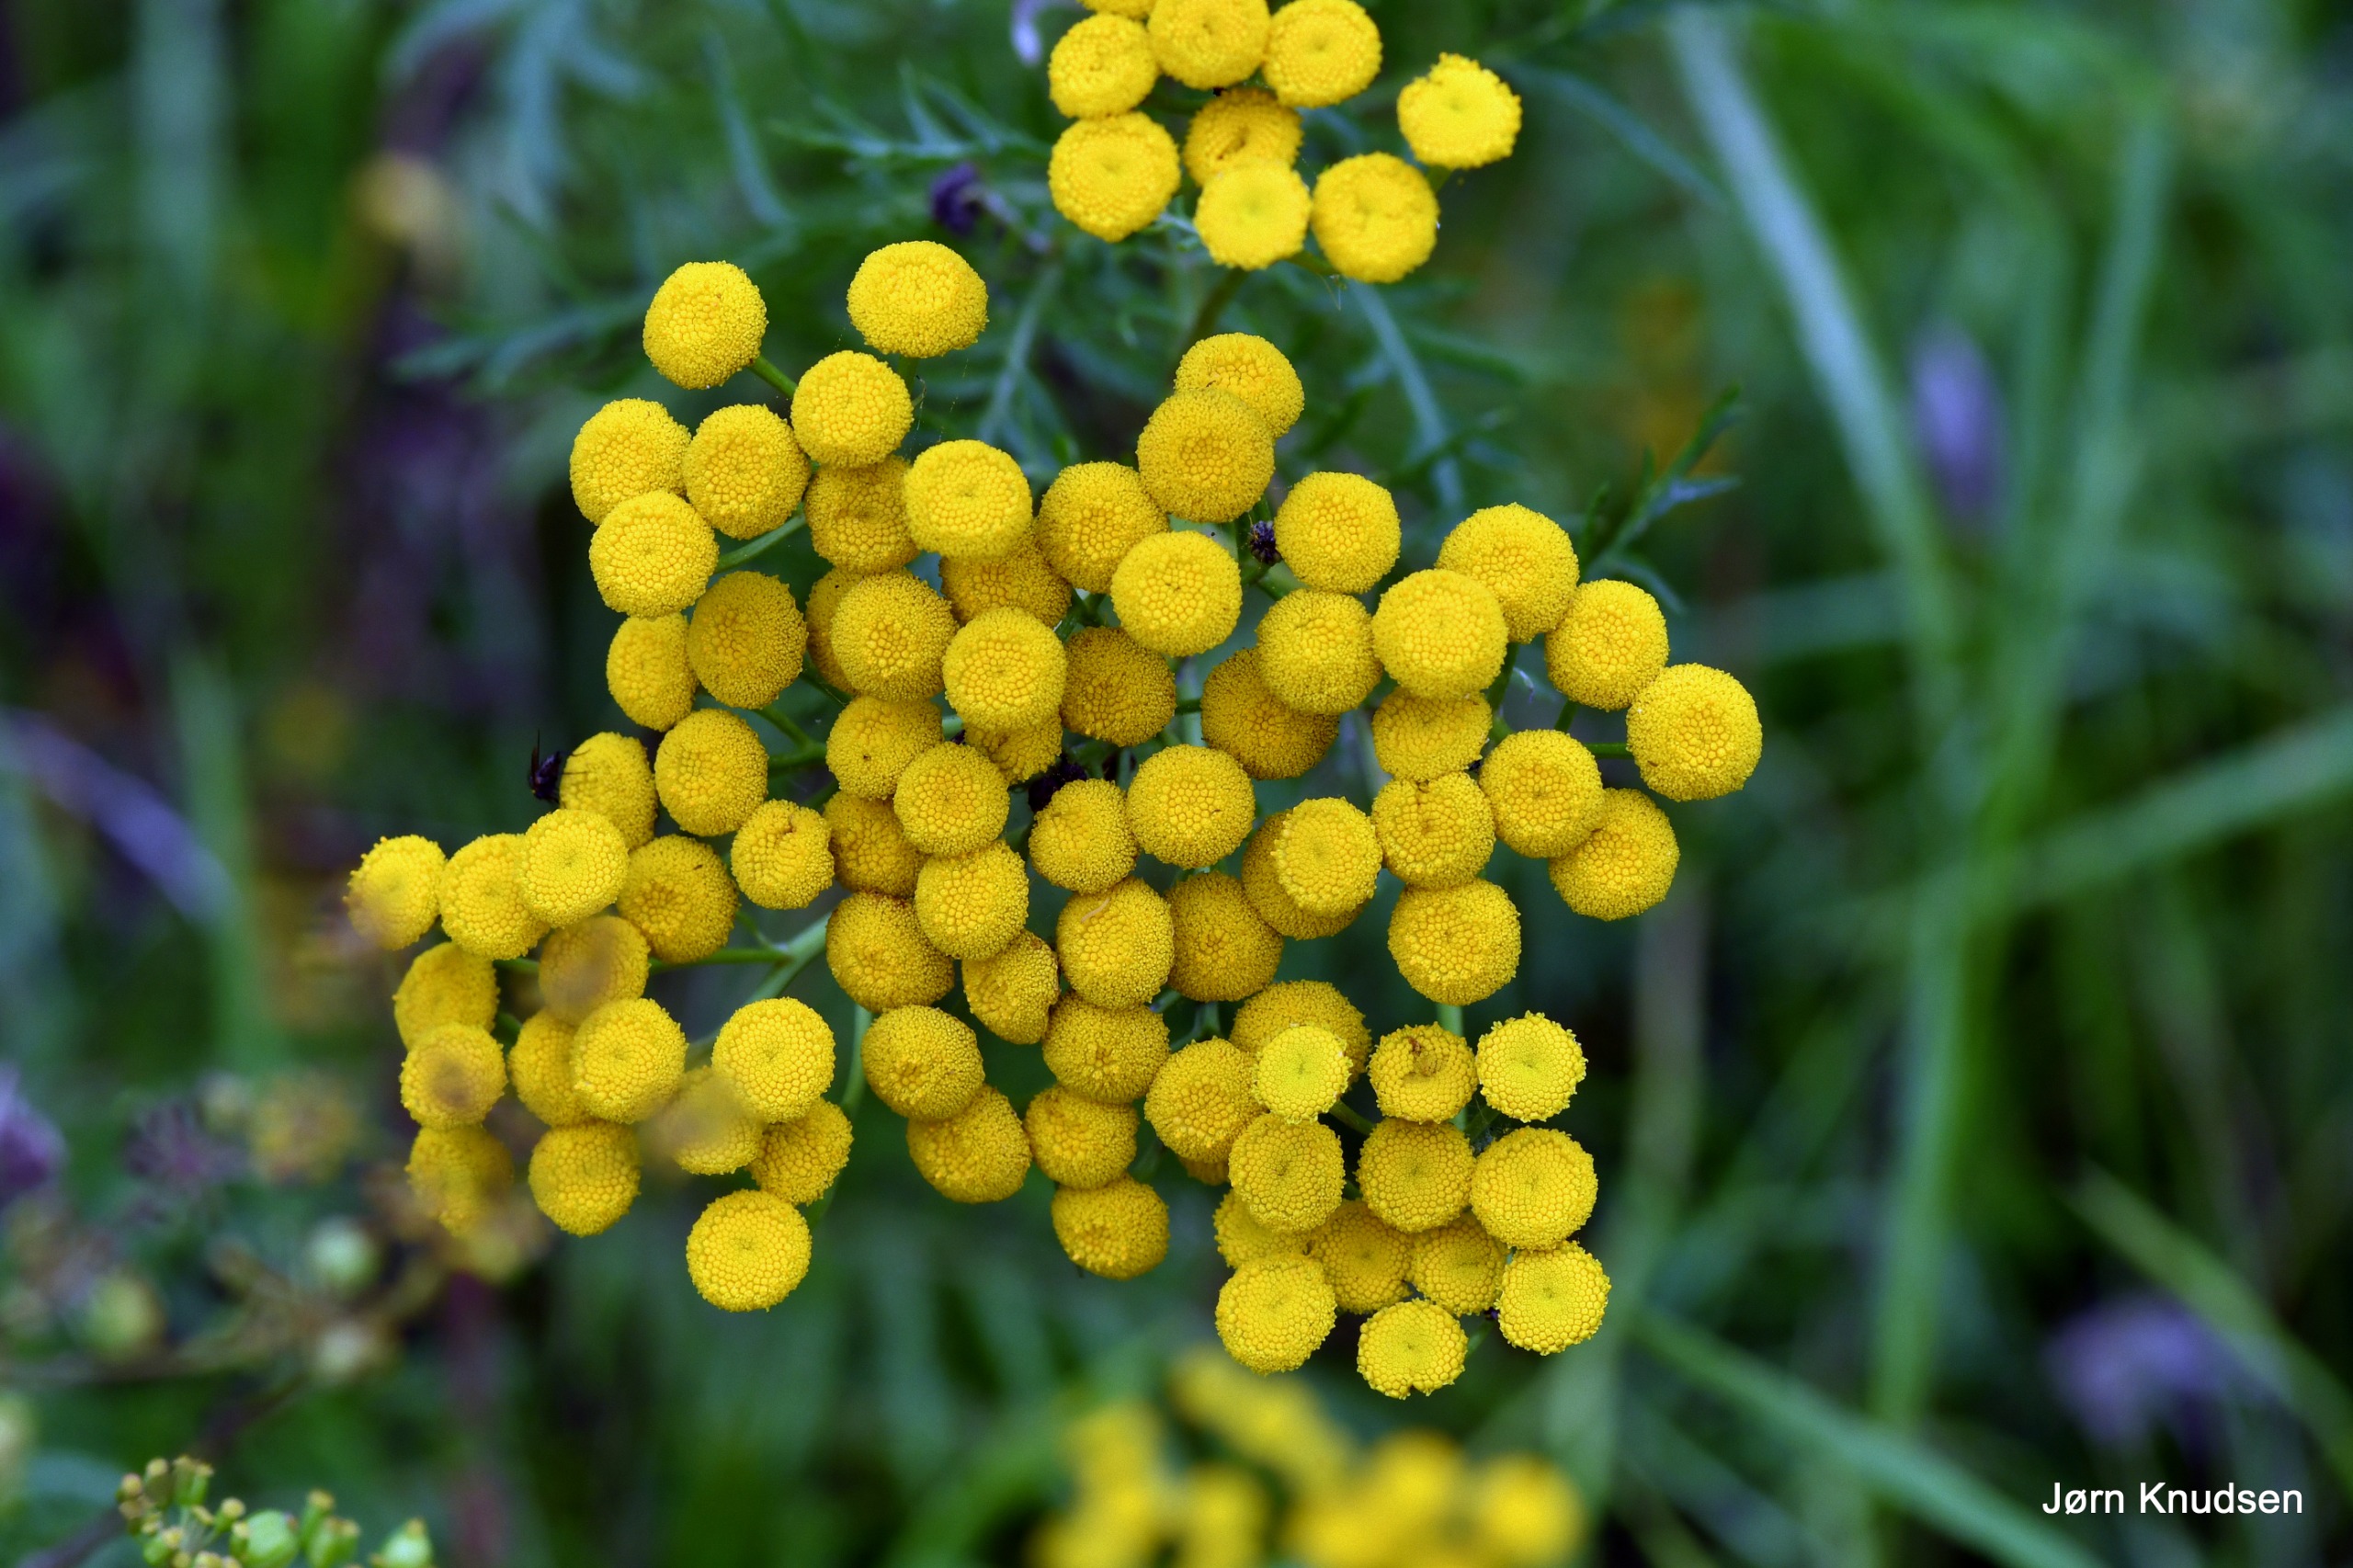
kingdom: Plantae
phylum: Tracheophyta
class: Magnoliopsida
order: Asterales
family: Asteraceae
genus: Tanacetum
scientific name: Tanacetum vulgare
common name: Rejnfan
